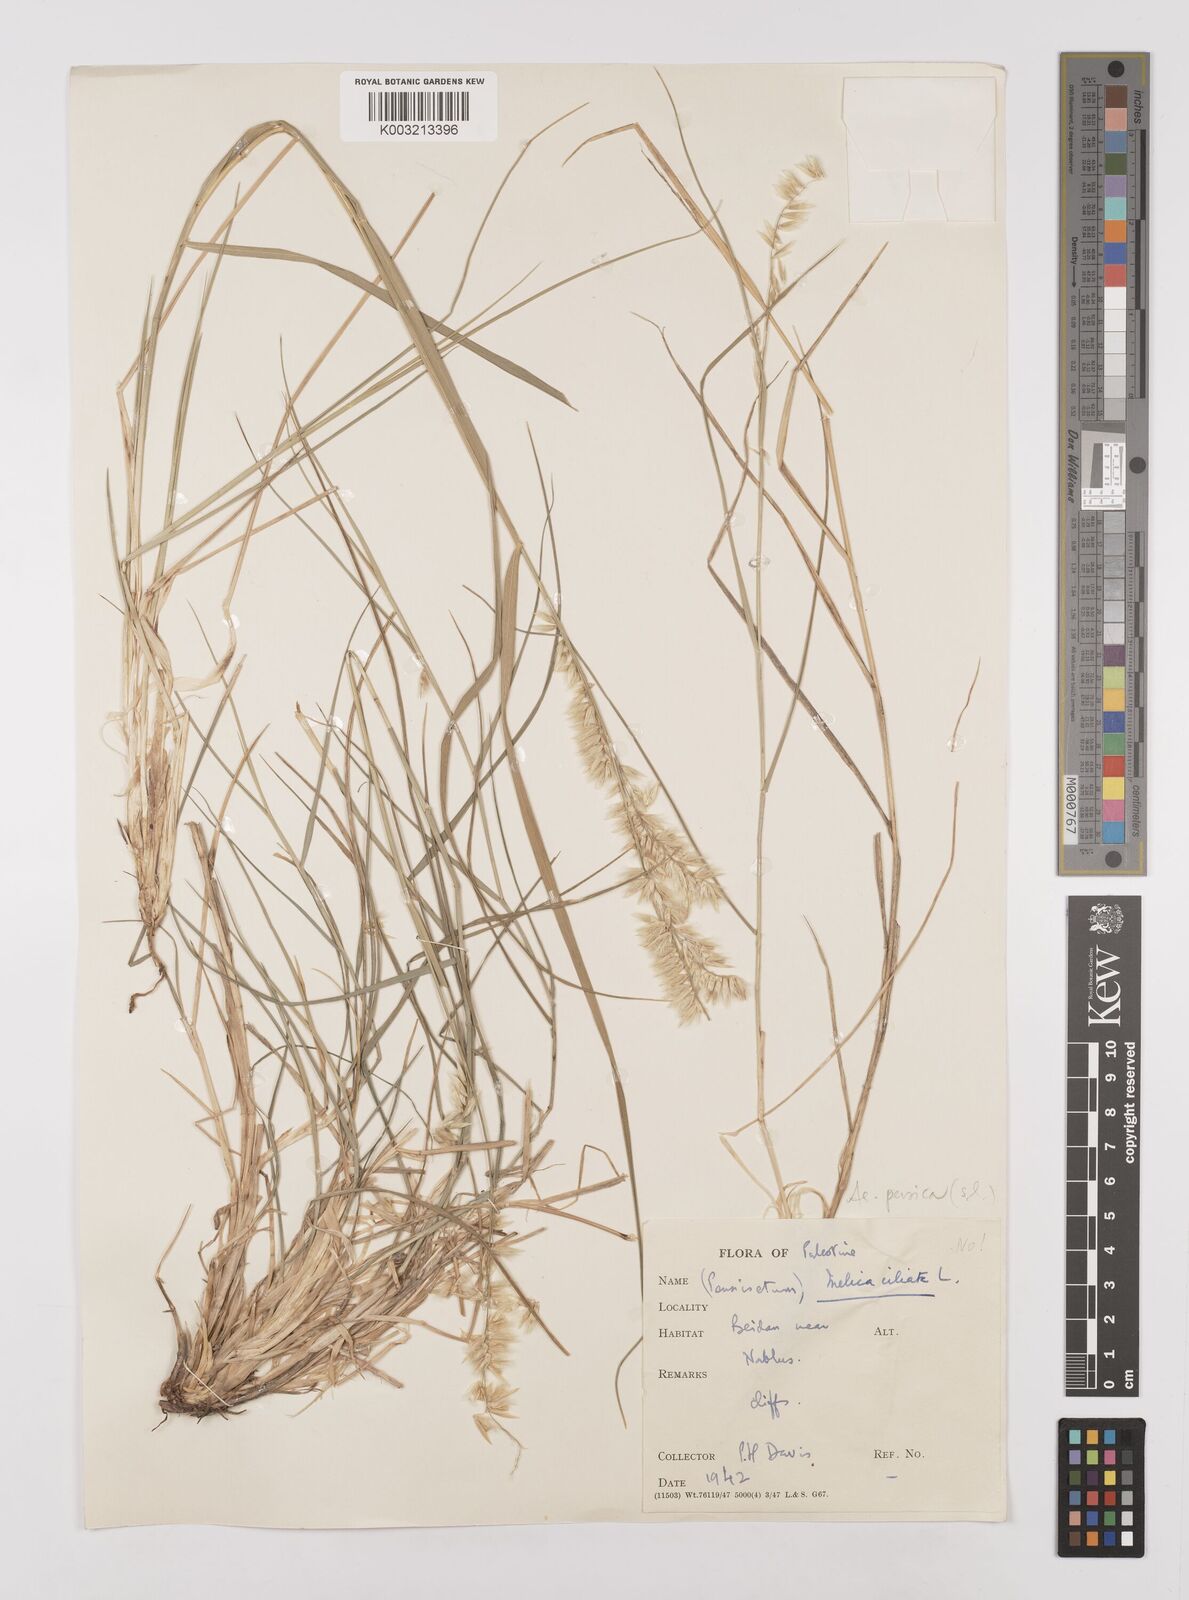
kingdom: Plantae
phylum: Tracheophyta
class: Liliopsida
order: Poales
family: Poaceae
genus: Melica
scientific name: Melica persica
